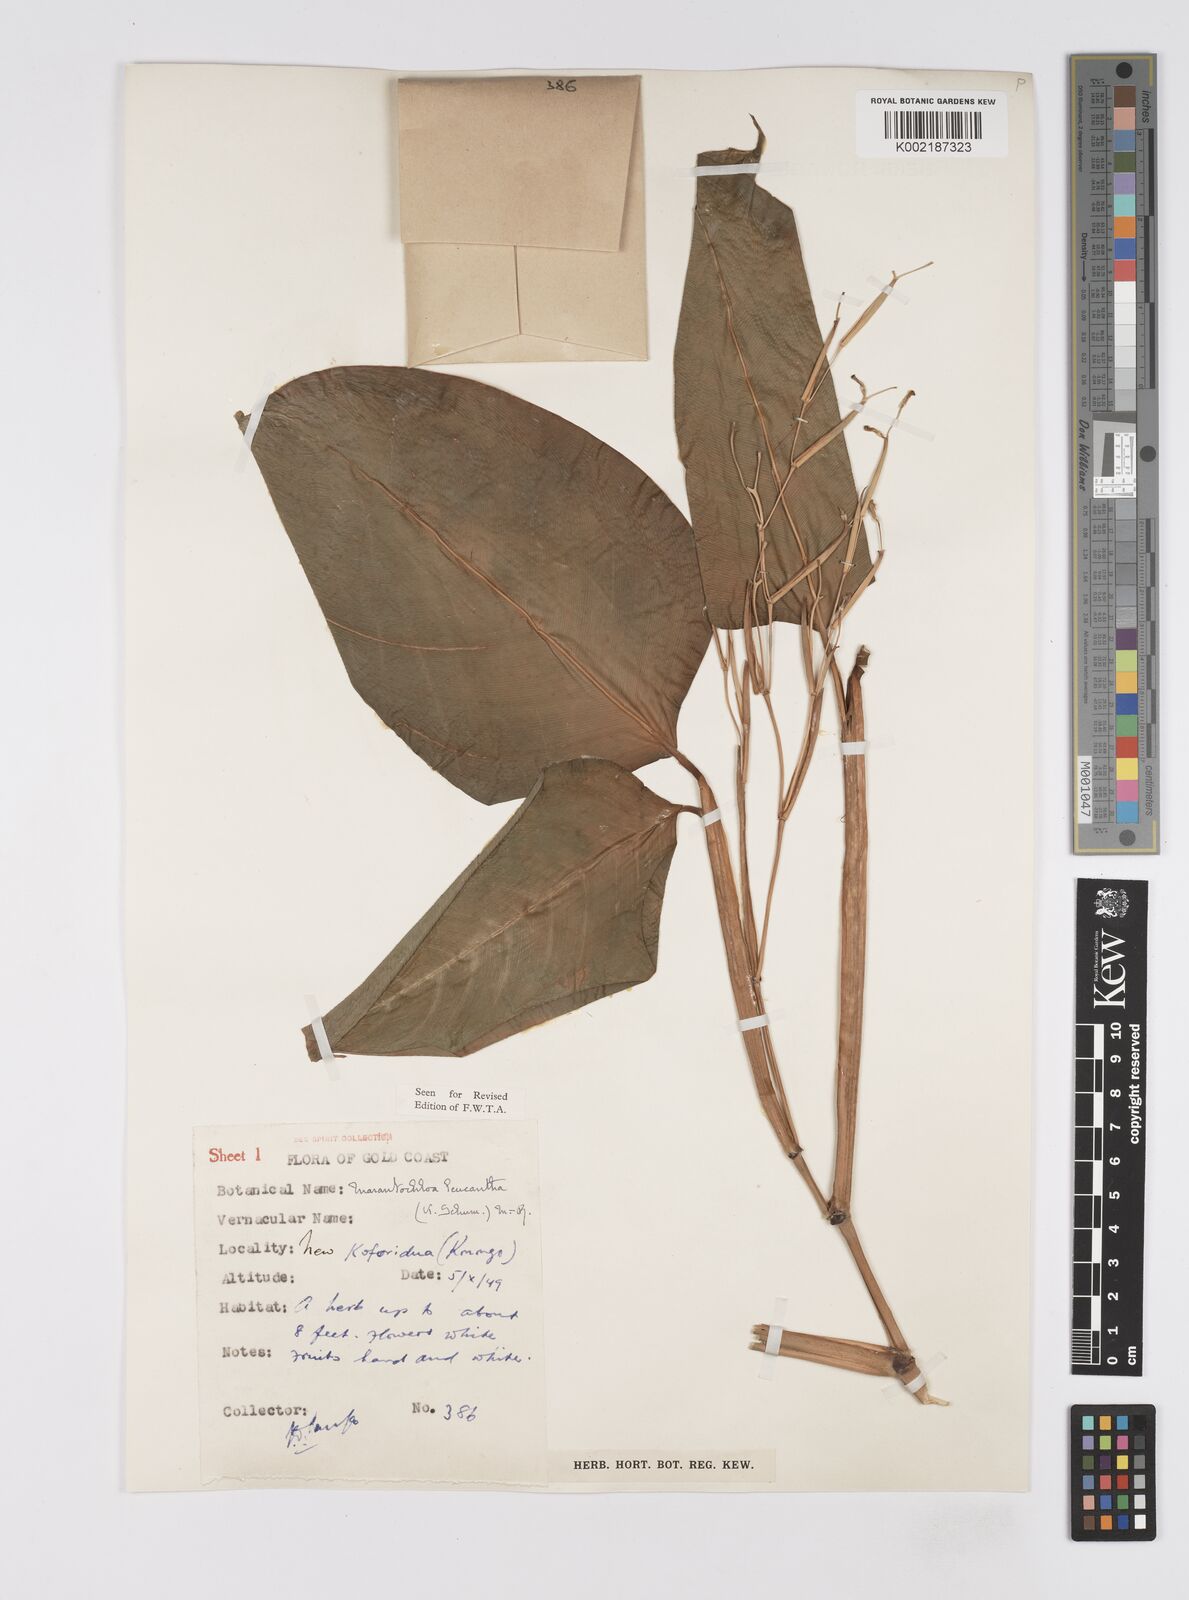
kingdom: Plantae
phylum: Tracheophyta
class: Liliopsida
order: Zingiberales
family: Marantaceae
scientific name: Marantaceae
